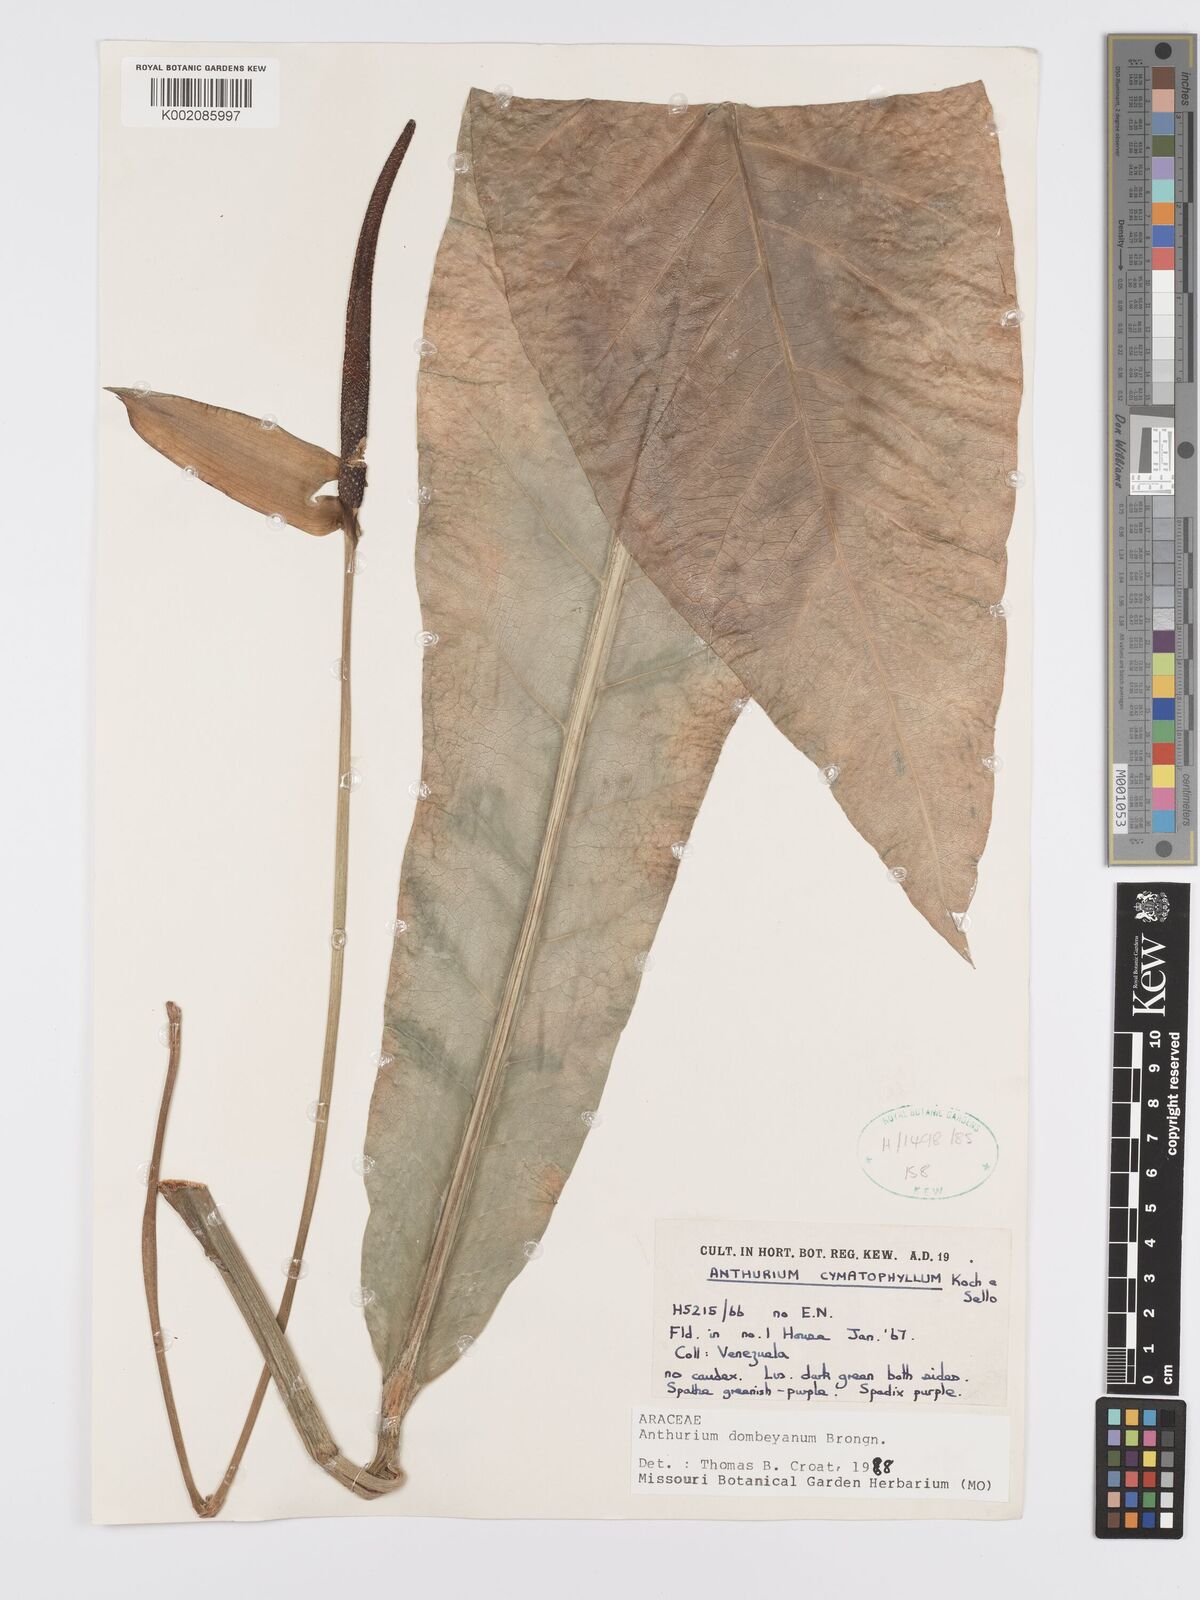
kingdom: Plantae
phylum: Tracheophyta
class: Liliopsida
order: Alismatales
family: Araceae
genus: Anthurium
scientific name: Anthurium dombeyanum
